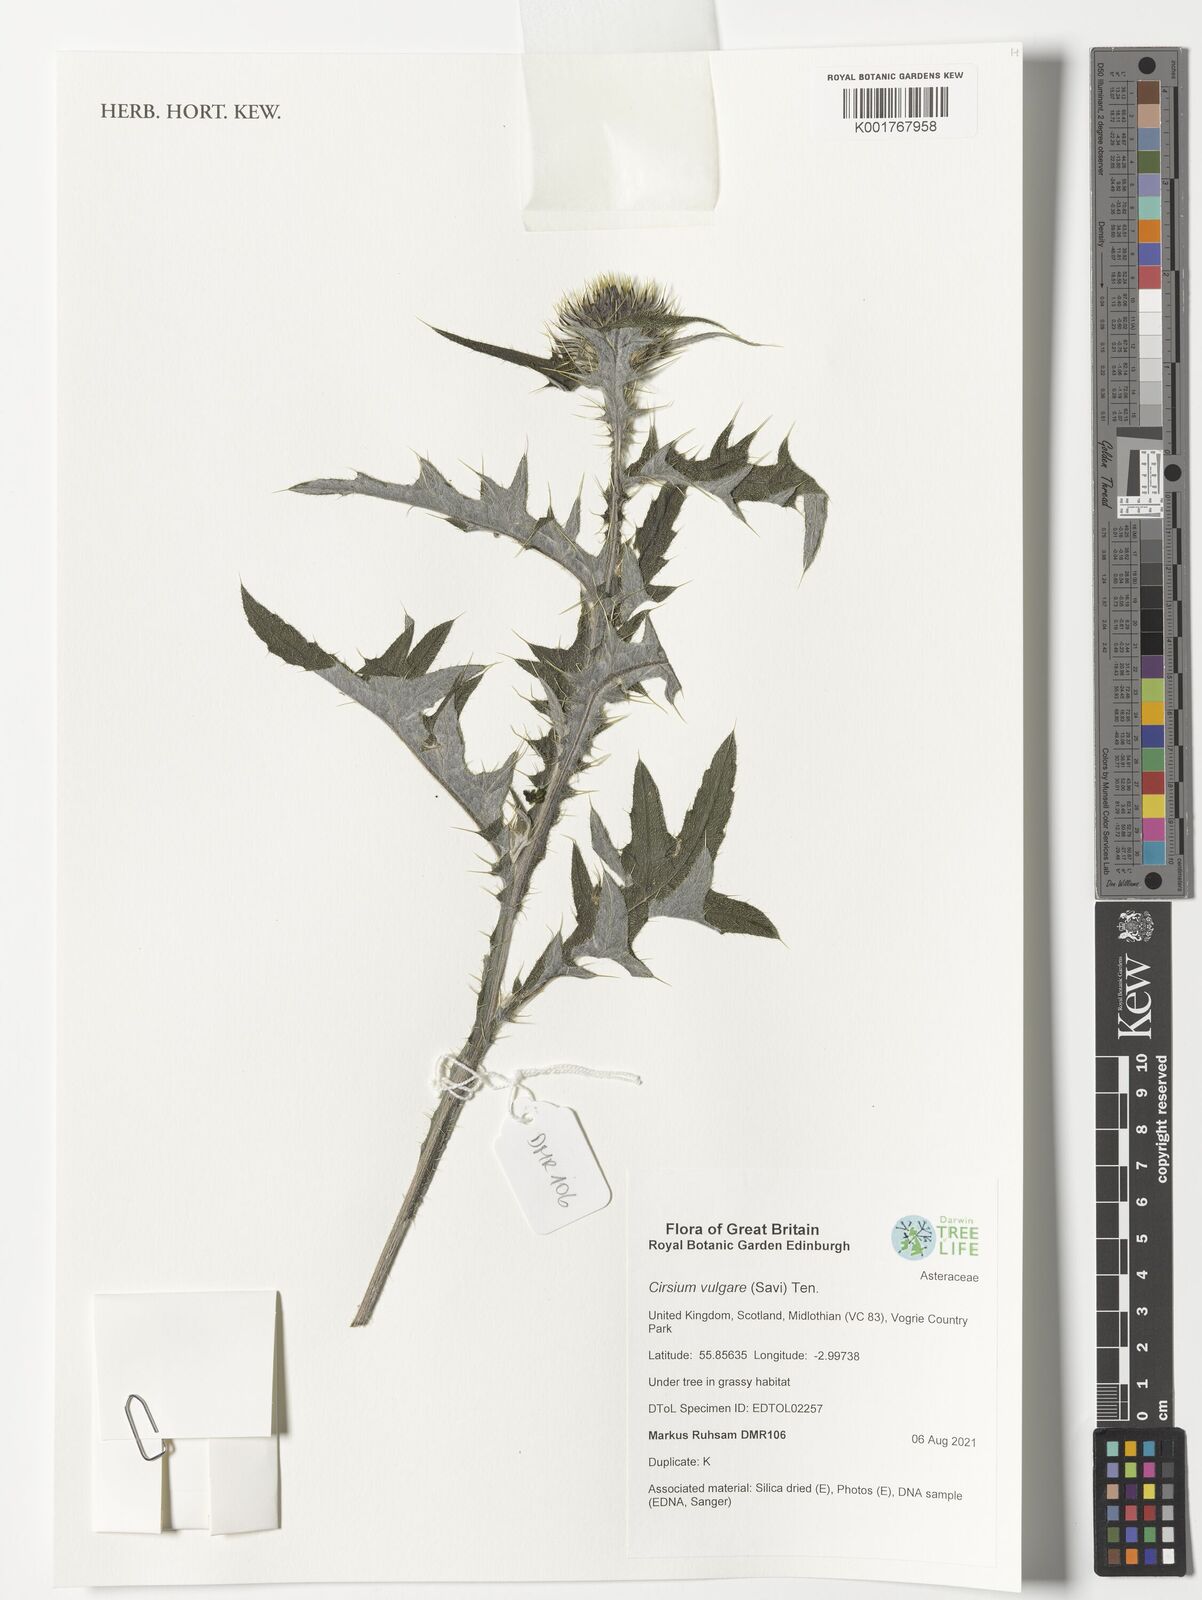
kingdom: Plantae
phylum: Tracheophyta
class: Magnoliopsida
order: Asterales
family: Asteraceae
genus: Cirsium
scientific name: Cirsium vulgare
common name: Bull thistle
